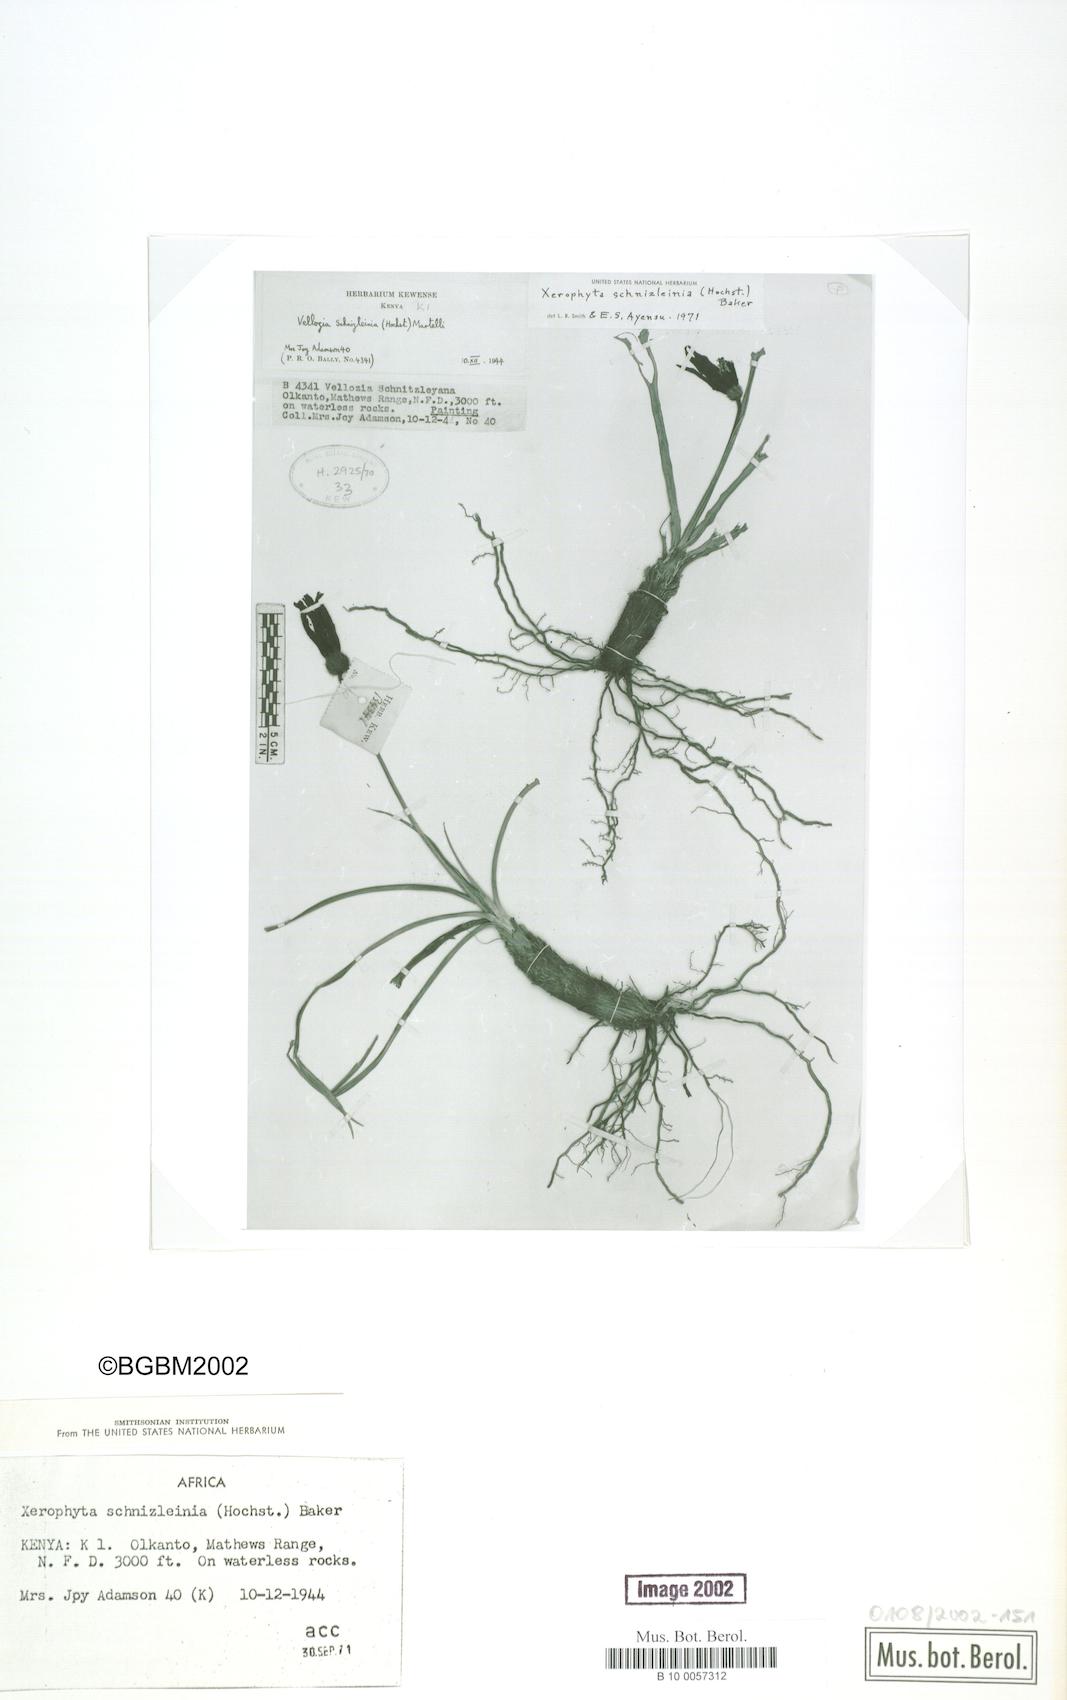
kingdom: Plantae
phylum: Tracheophyta
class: Liliopsida
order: Pandanales
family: Velloziaceae
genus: Xerophyta
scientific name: Xerophyta schnizleinia
